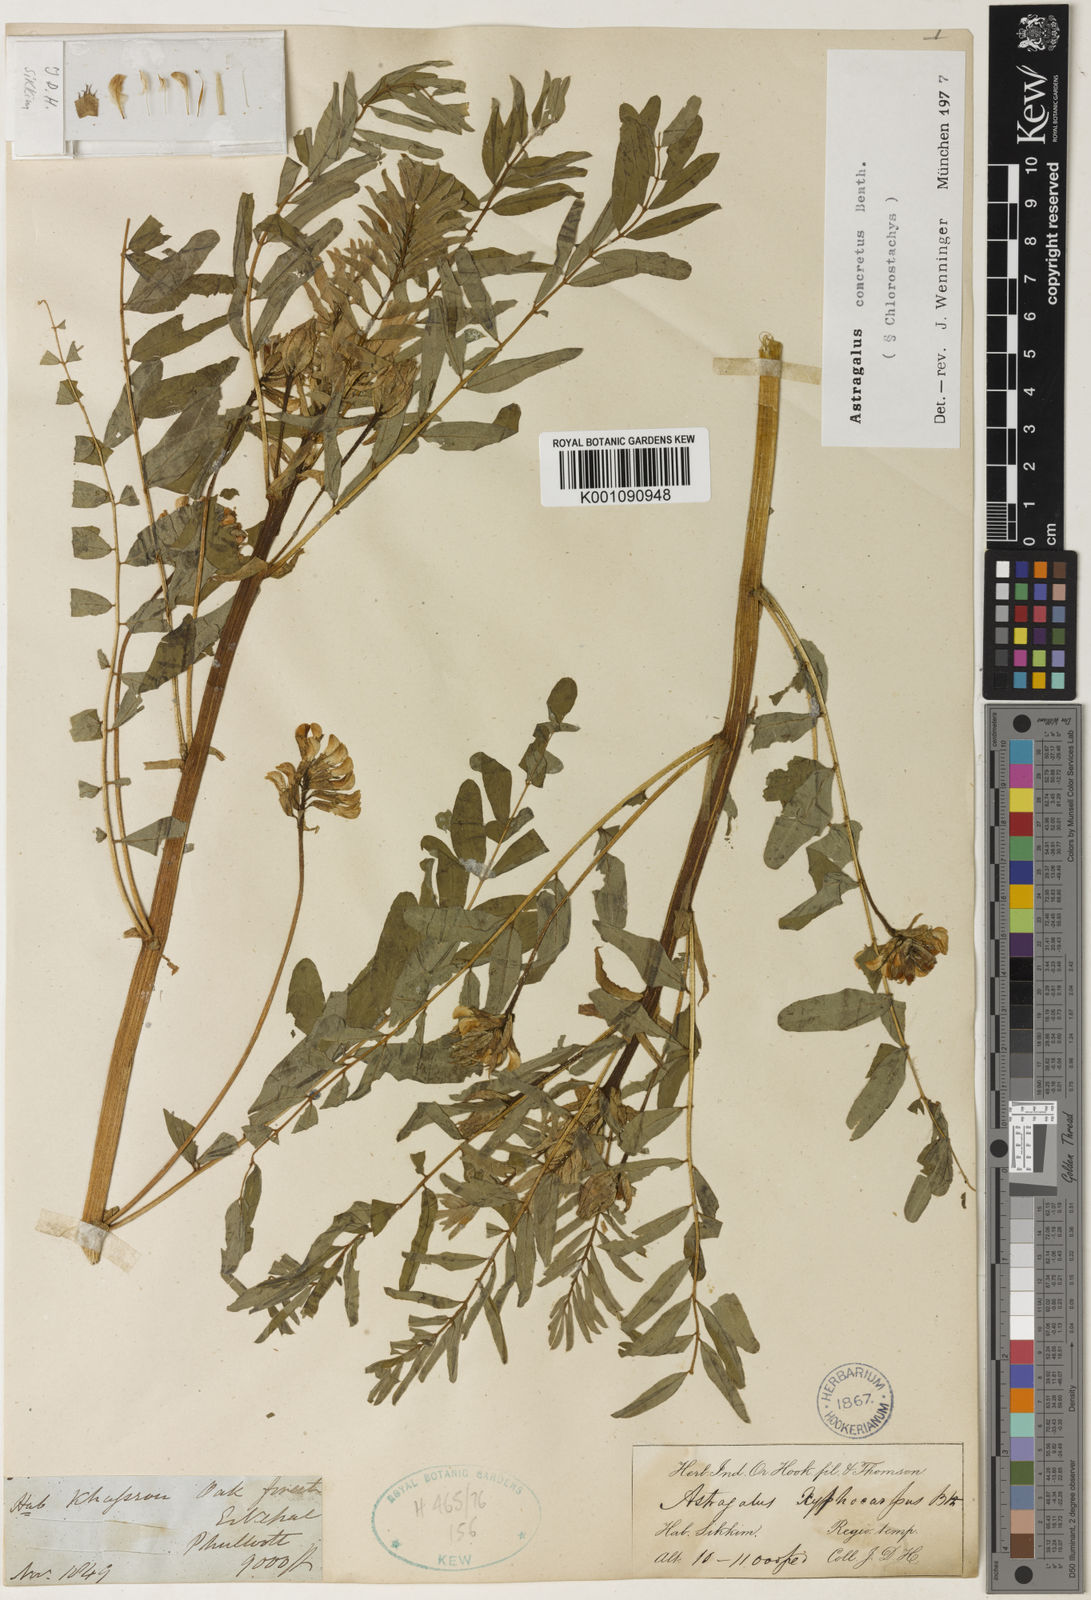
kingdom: Plantae
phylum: Tracheophyta
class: Magnoliopsida
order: Fabales
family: Fabaceae
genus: Astragalus
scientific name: Astragalus
